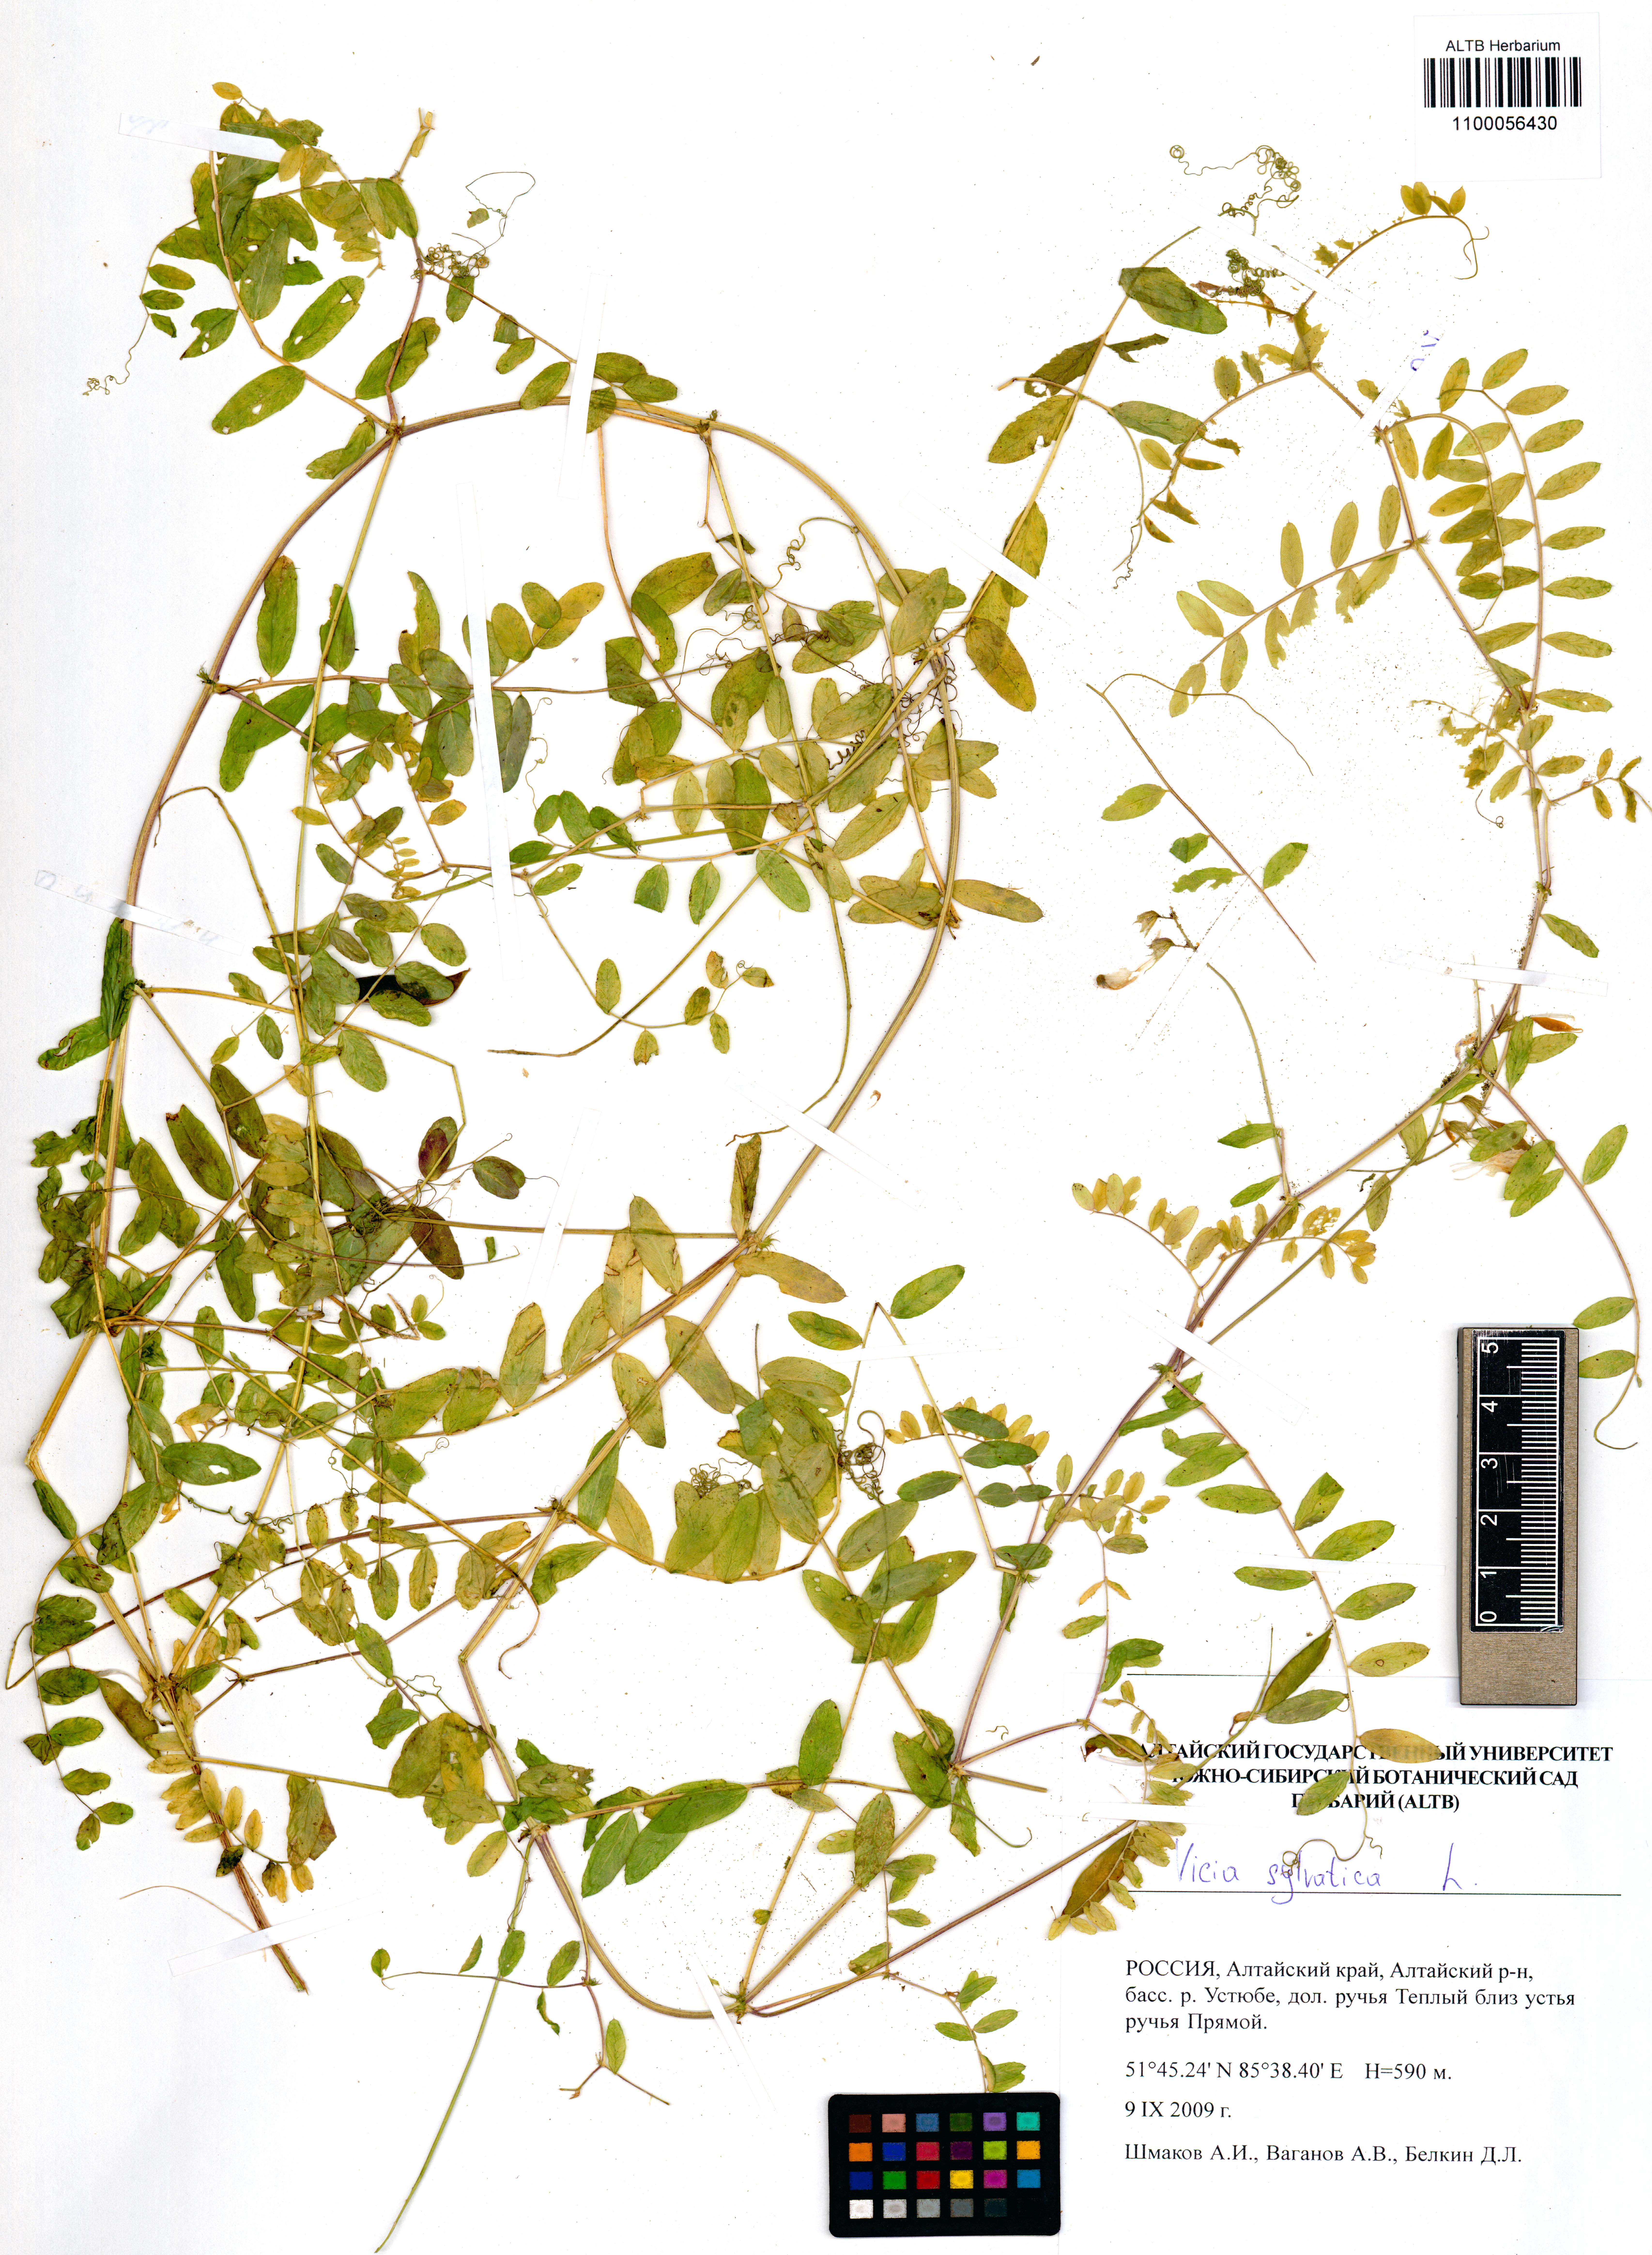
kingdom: Plantae
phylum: Tracheophyta
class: Magnoliopsida
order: Fabales
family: Fabaceae
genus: Vicia
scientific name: Vicia sylvatica
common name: Wood vetch
